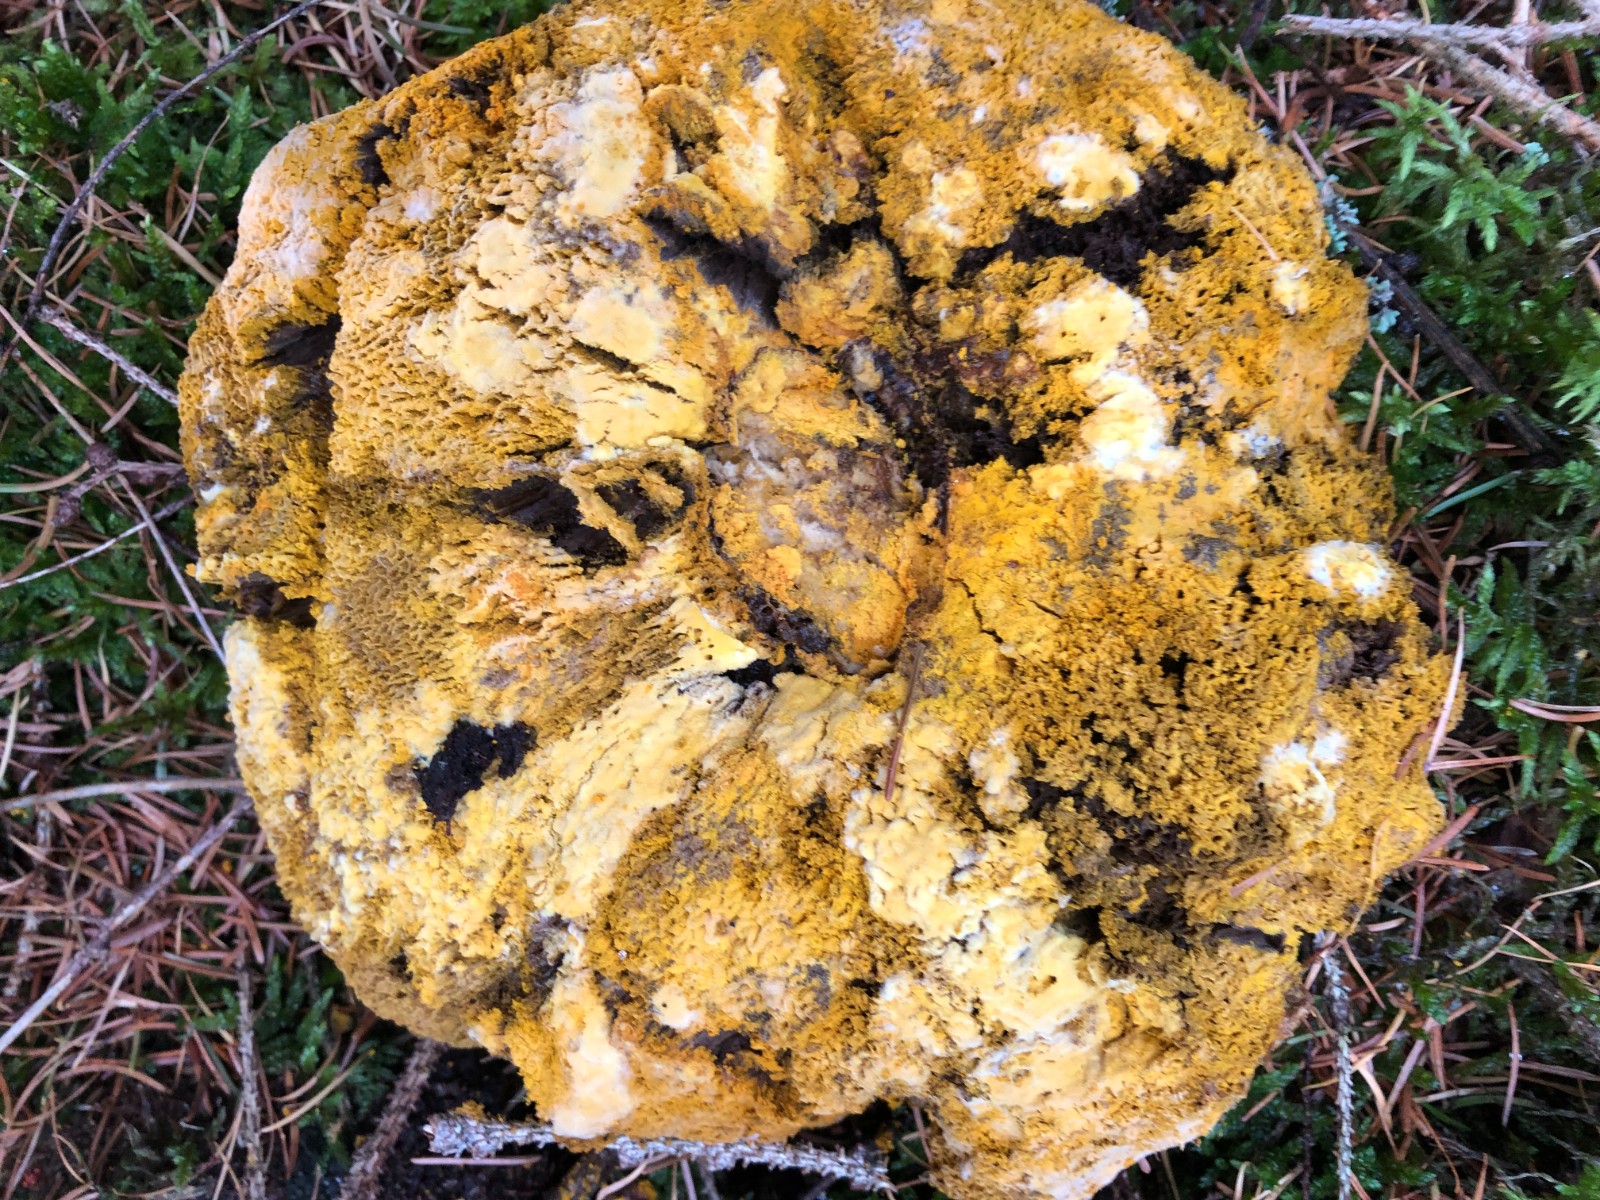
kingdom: Fungi
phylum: Ascomycota
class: Sordariomycetes
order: Hypocreales
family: Hypocreaceae
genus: Hypomyces
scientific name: Hypomyces chrysospermus
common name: gulskimmel-snylteskorpe
